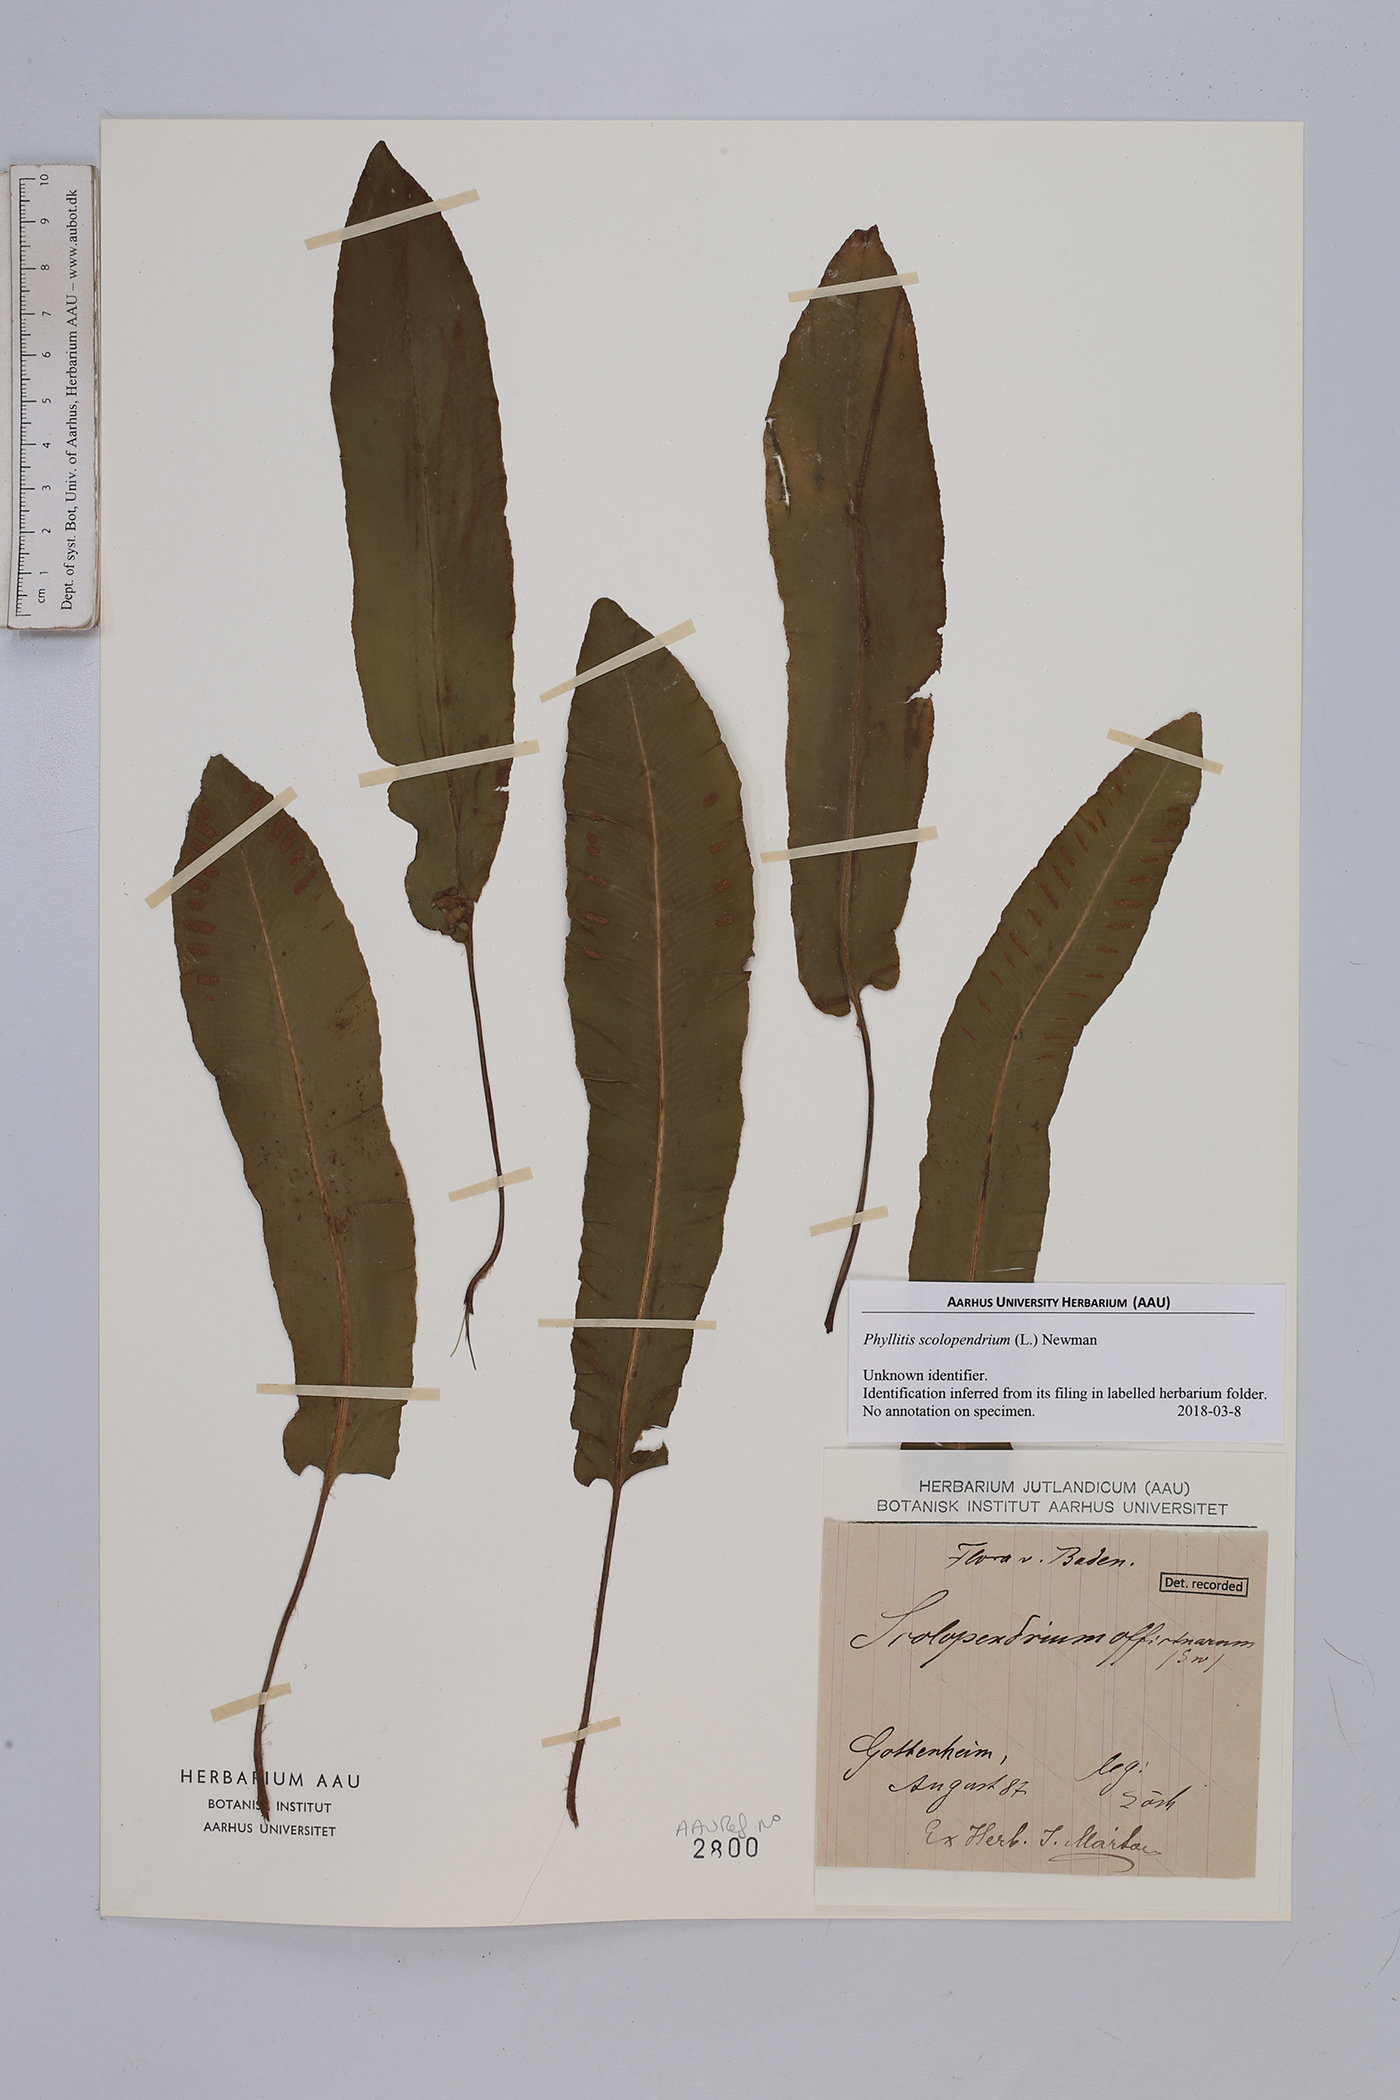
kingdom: Plantae
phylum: Tracheophyta
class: Polypodiopsida
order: Polypodiales
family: Aspleniaceae
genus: Asplenium
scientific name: Asplenium scolopendrium
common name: Hart's-tongue fern
